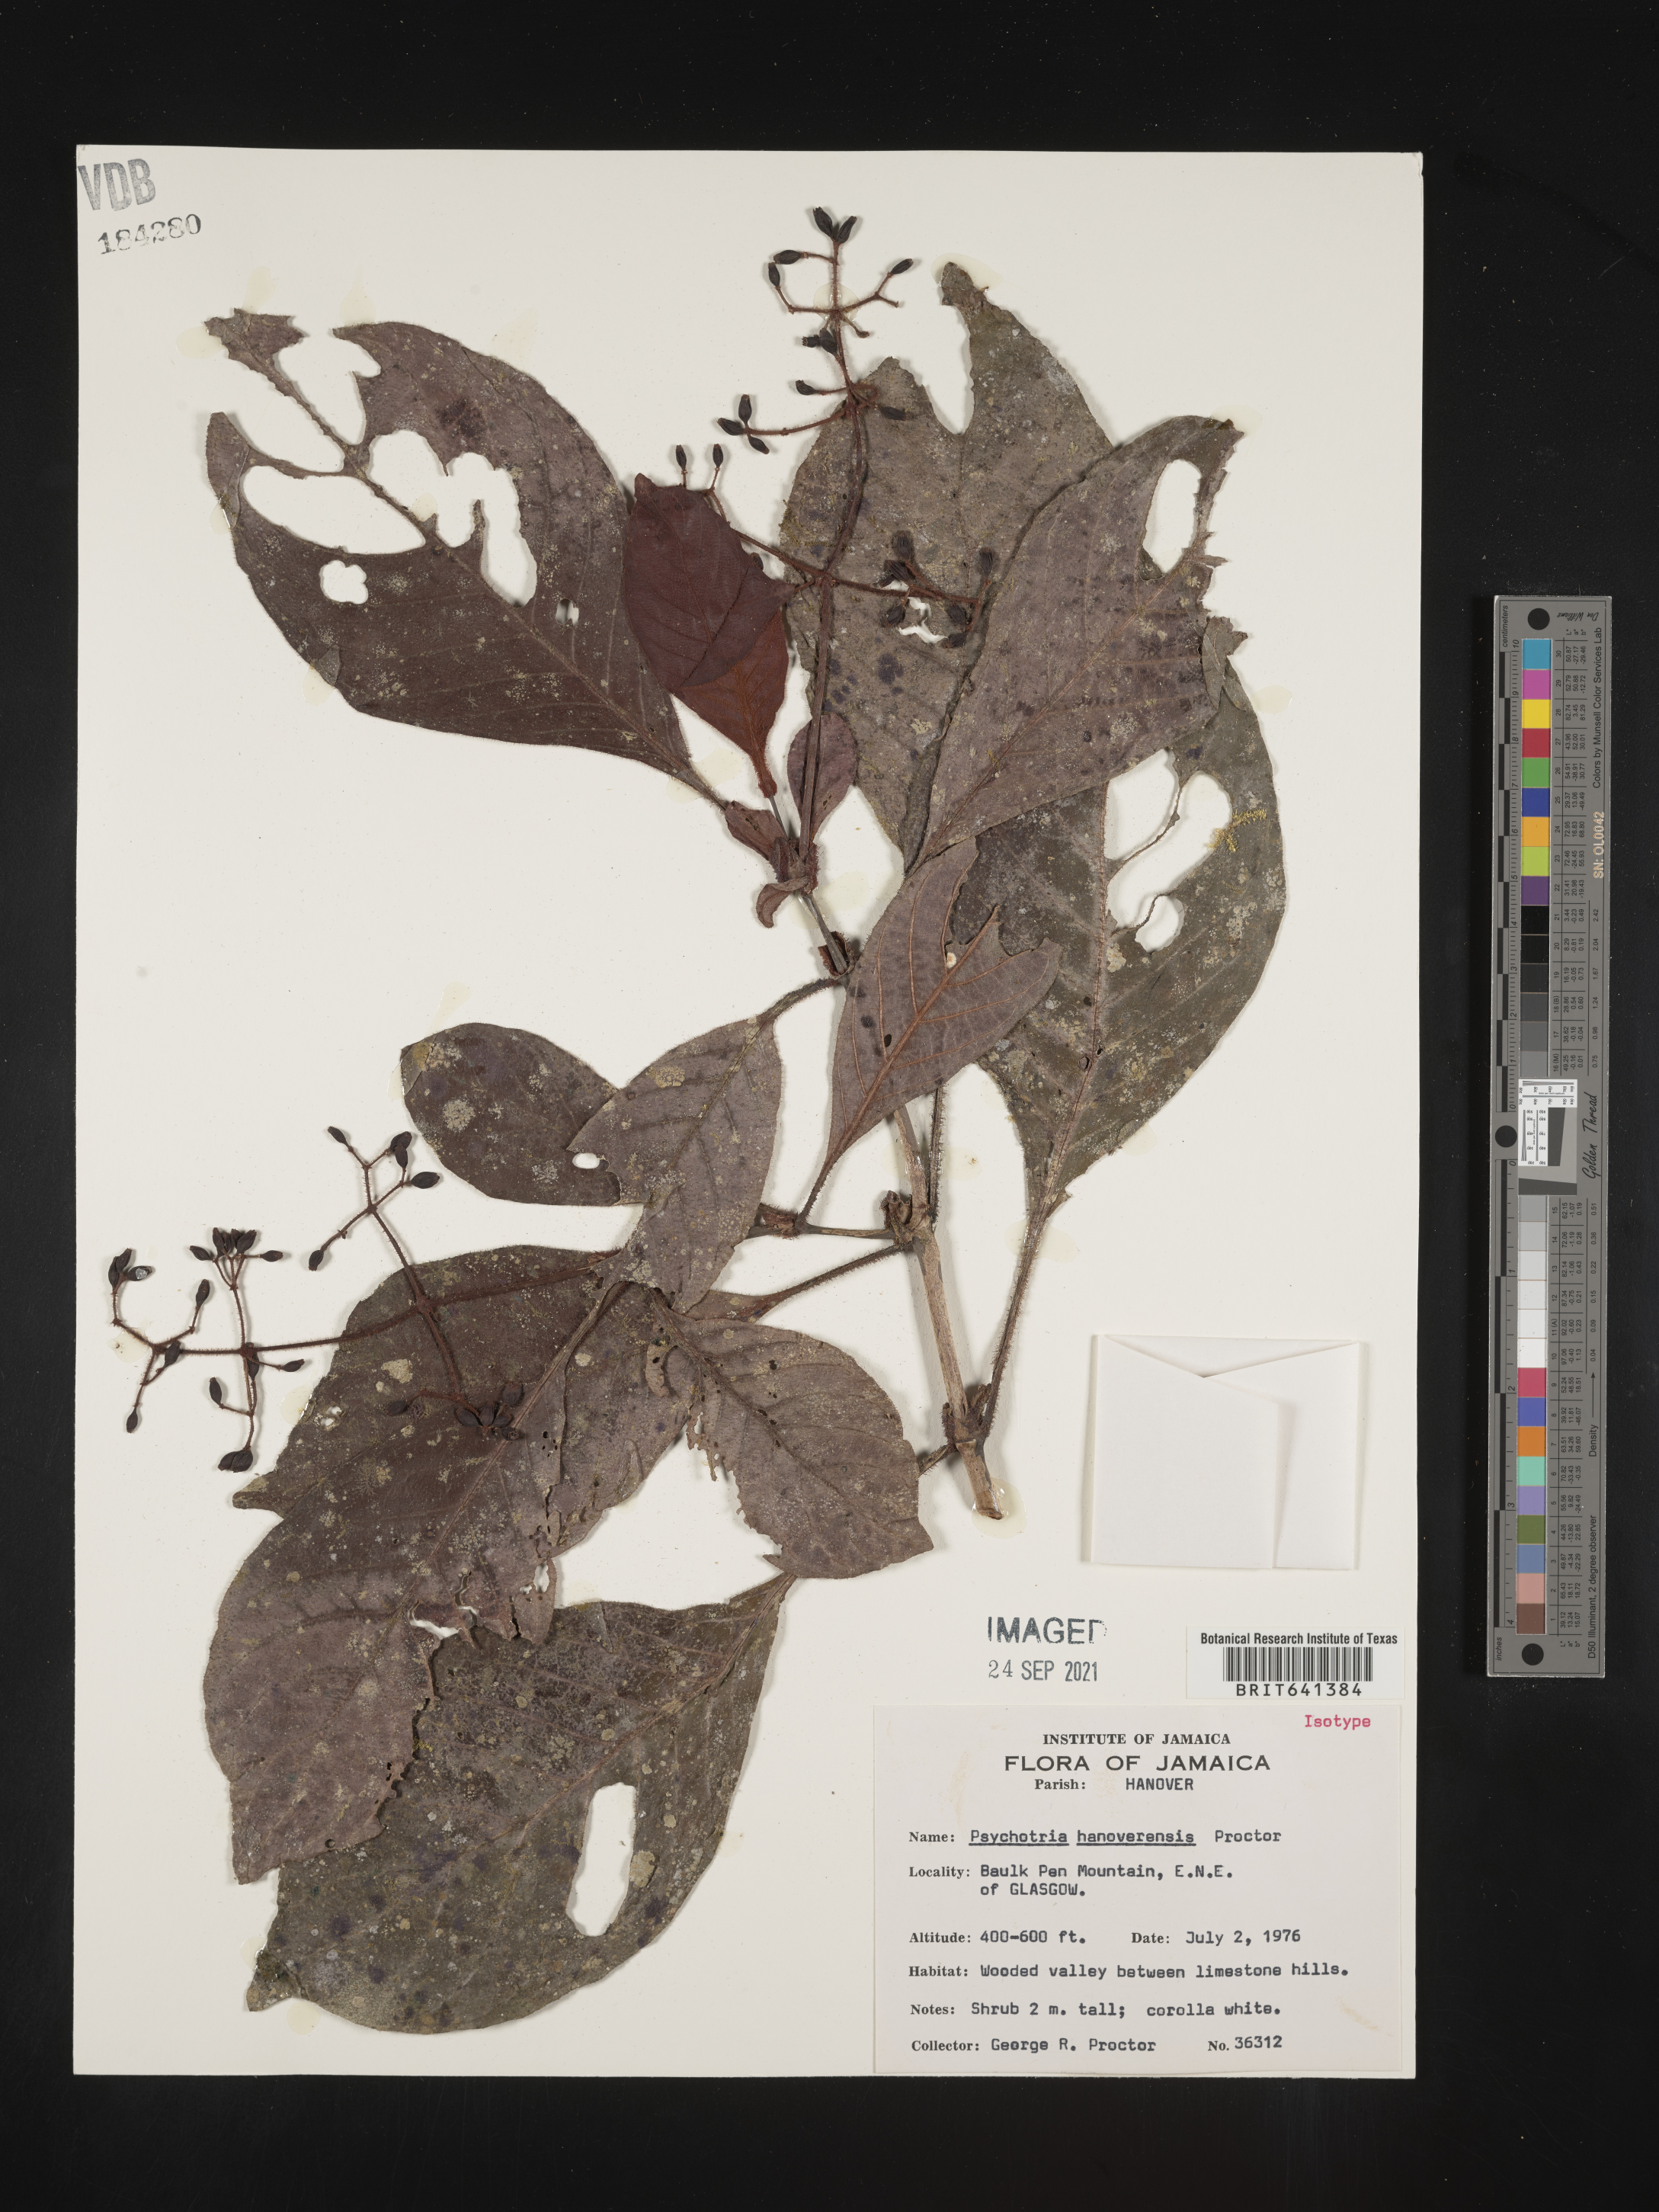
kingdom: Plantae
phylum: Tracheophyta
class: Magnoliopsida
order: Gentianales
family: Rubiaceae
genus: Psychotria
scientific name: Psychotria
